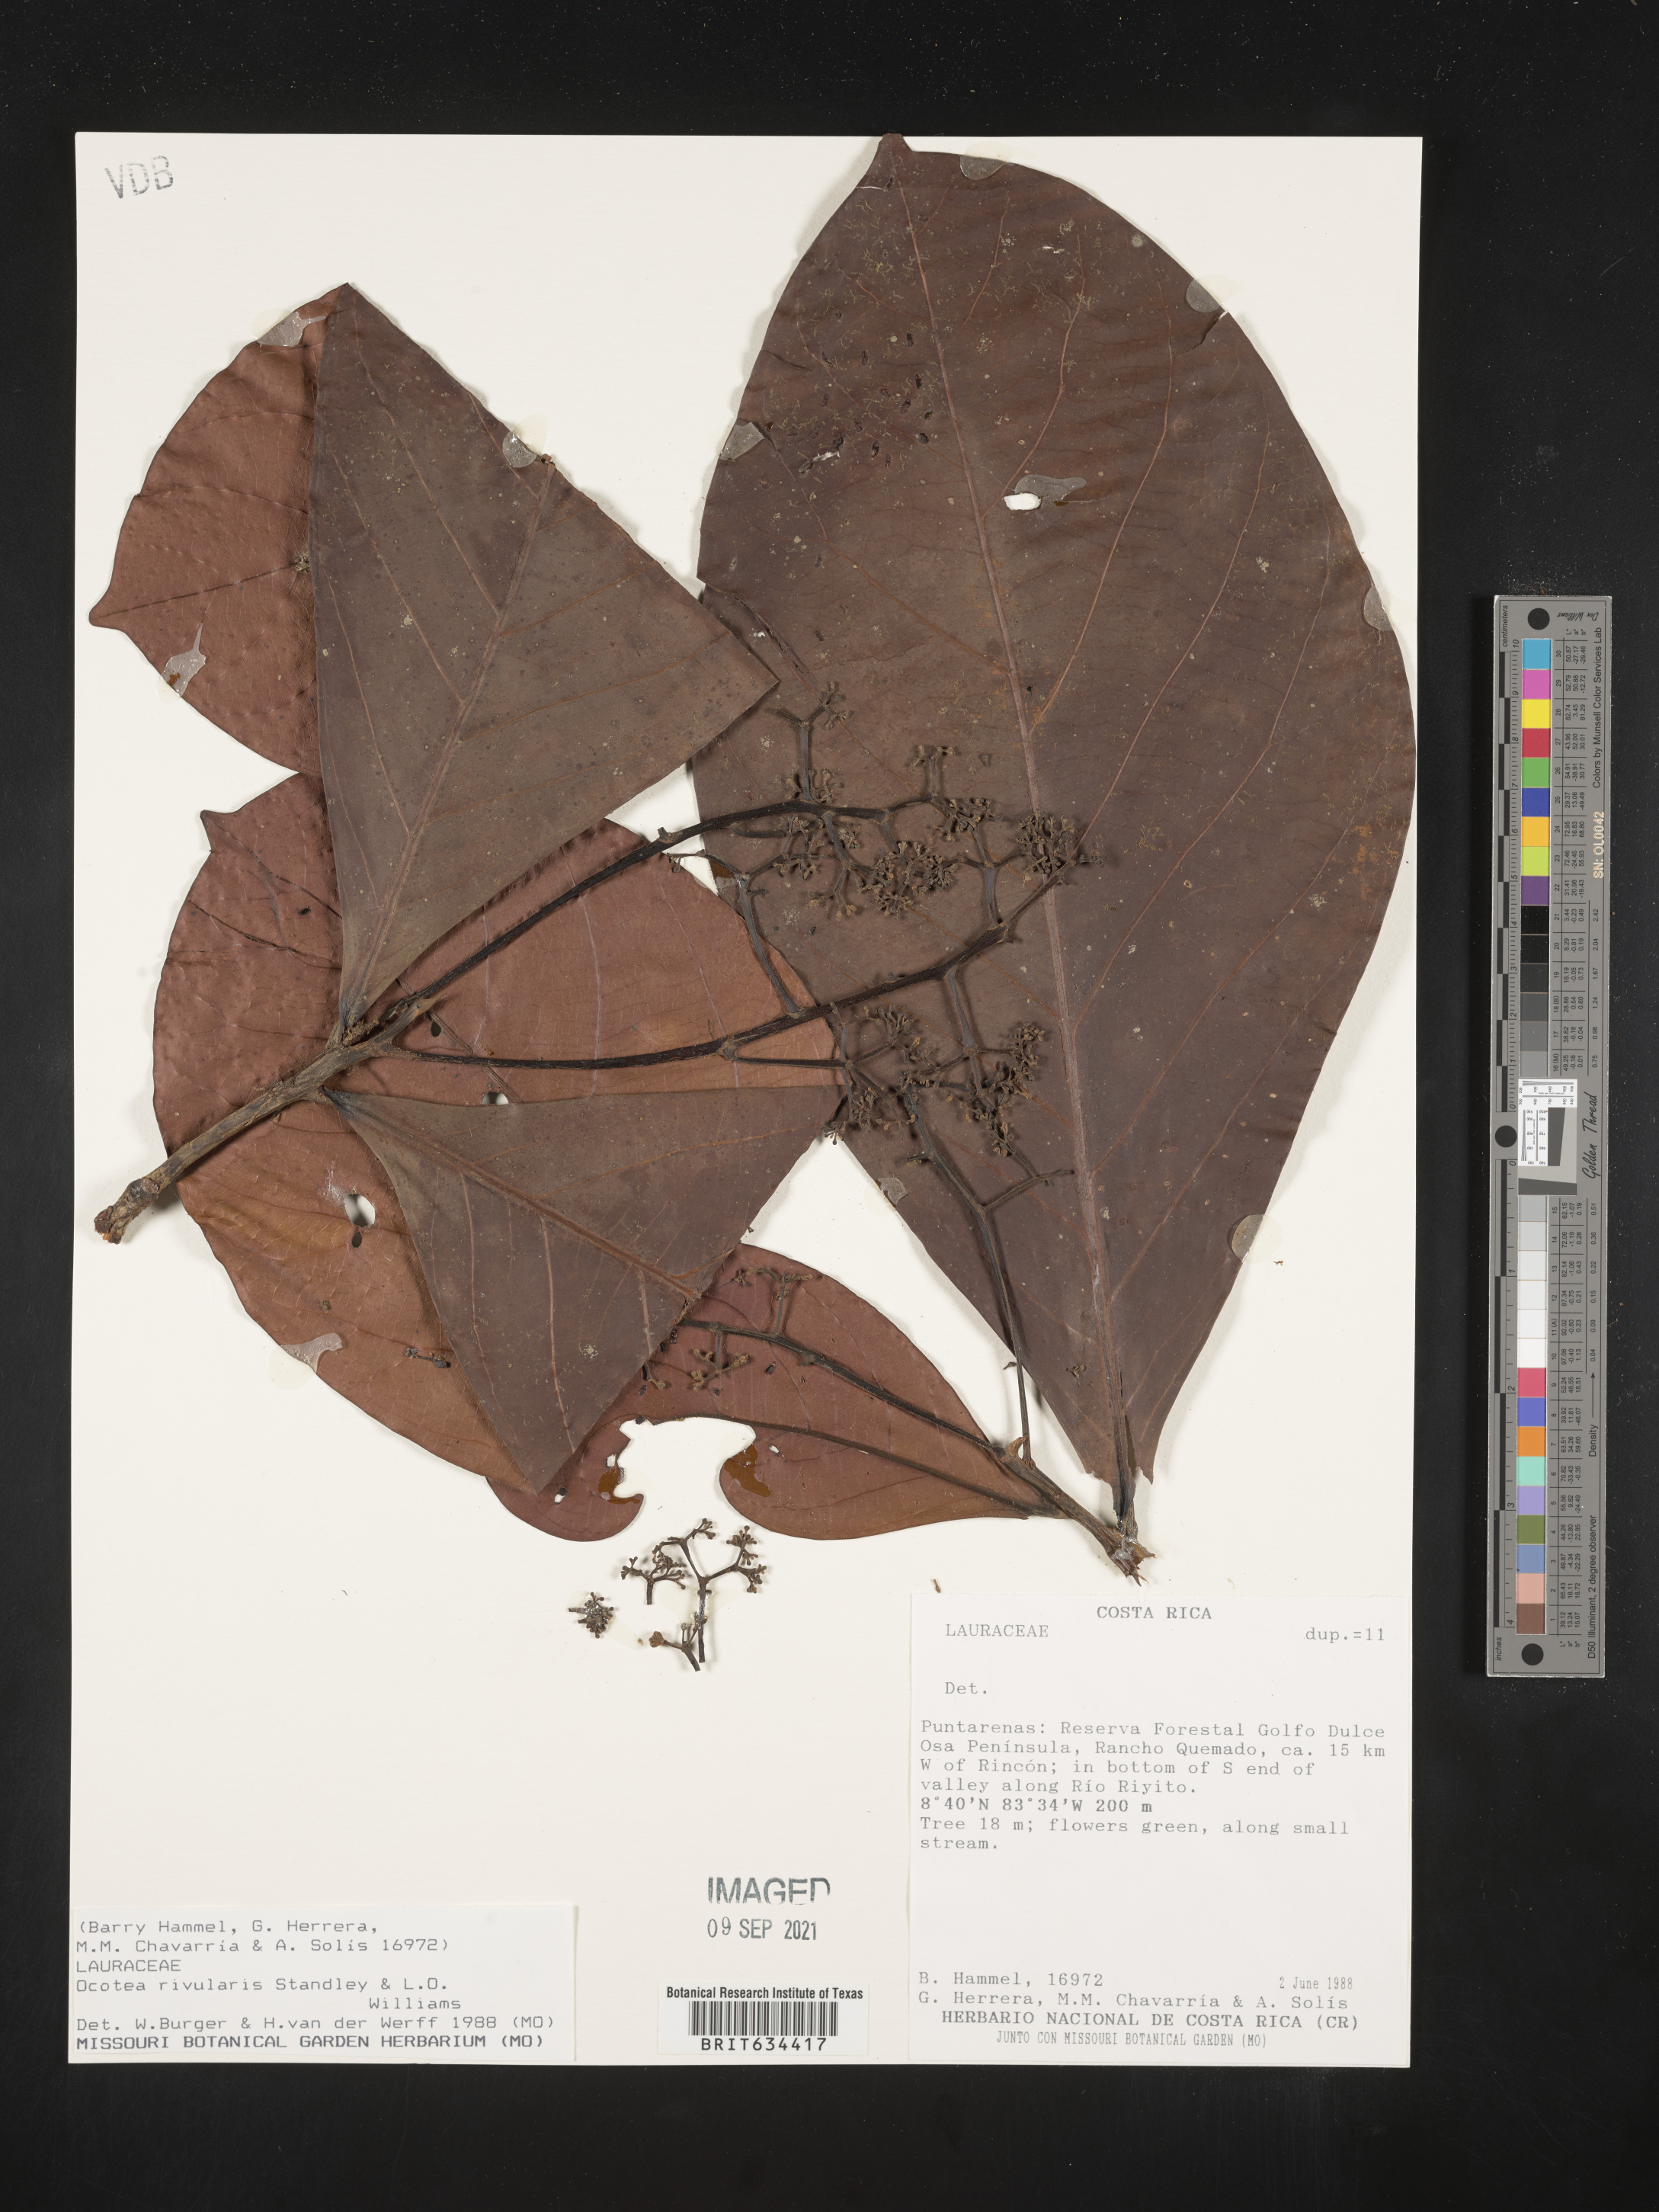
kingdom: Plantae
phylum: Tracheophyta
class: Magnoliopsida
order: Laurales
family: Lauraceae
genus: Ocotea
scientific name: Ocotea
